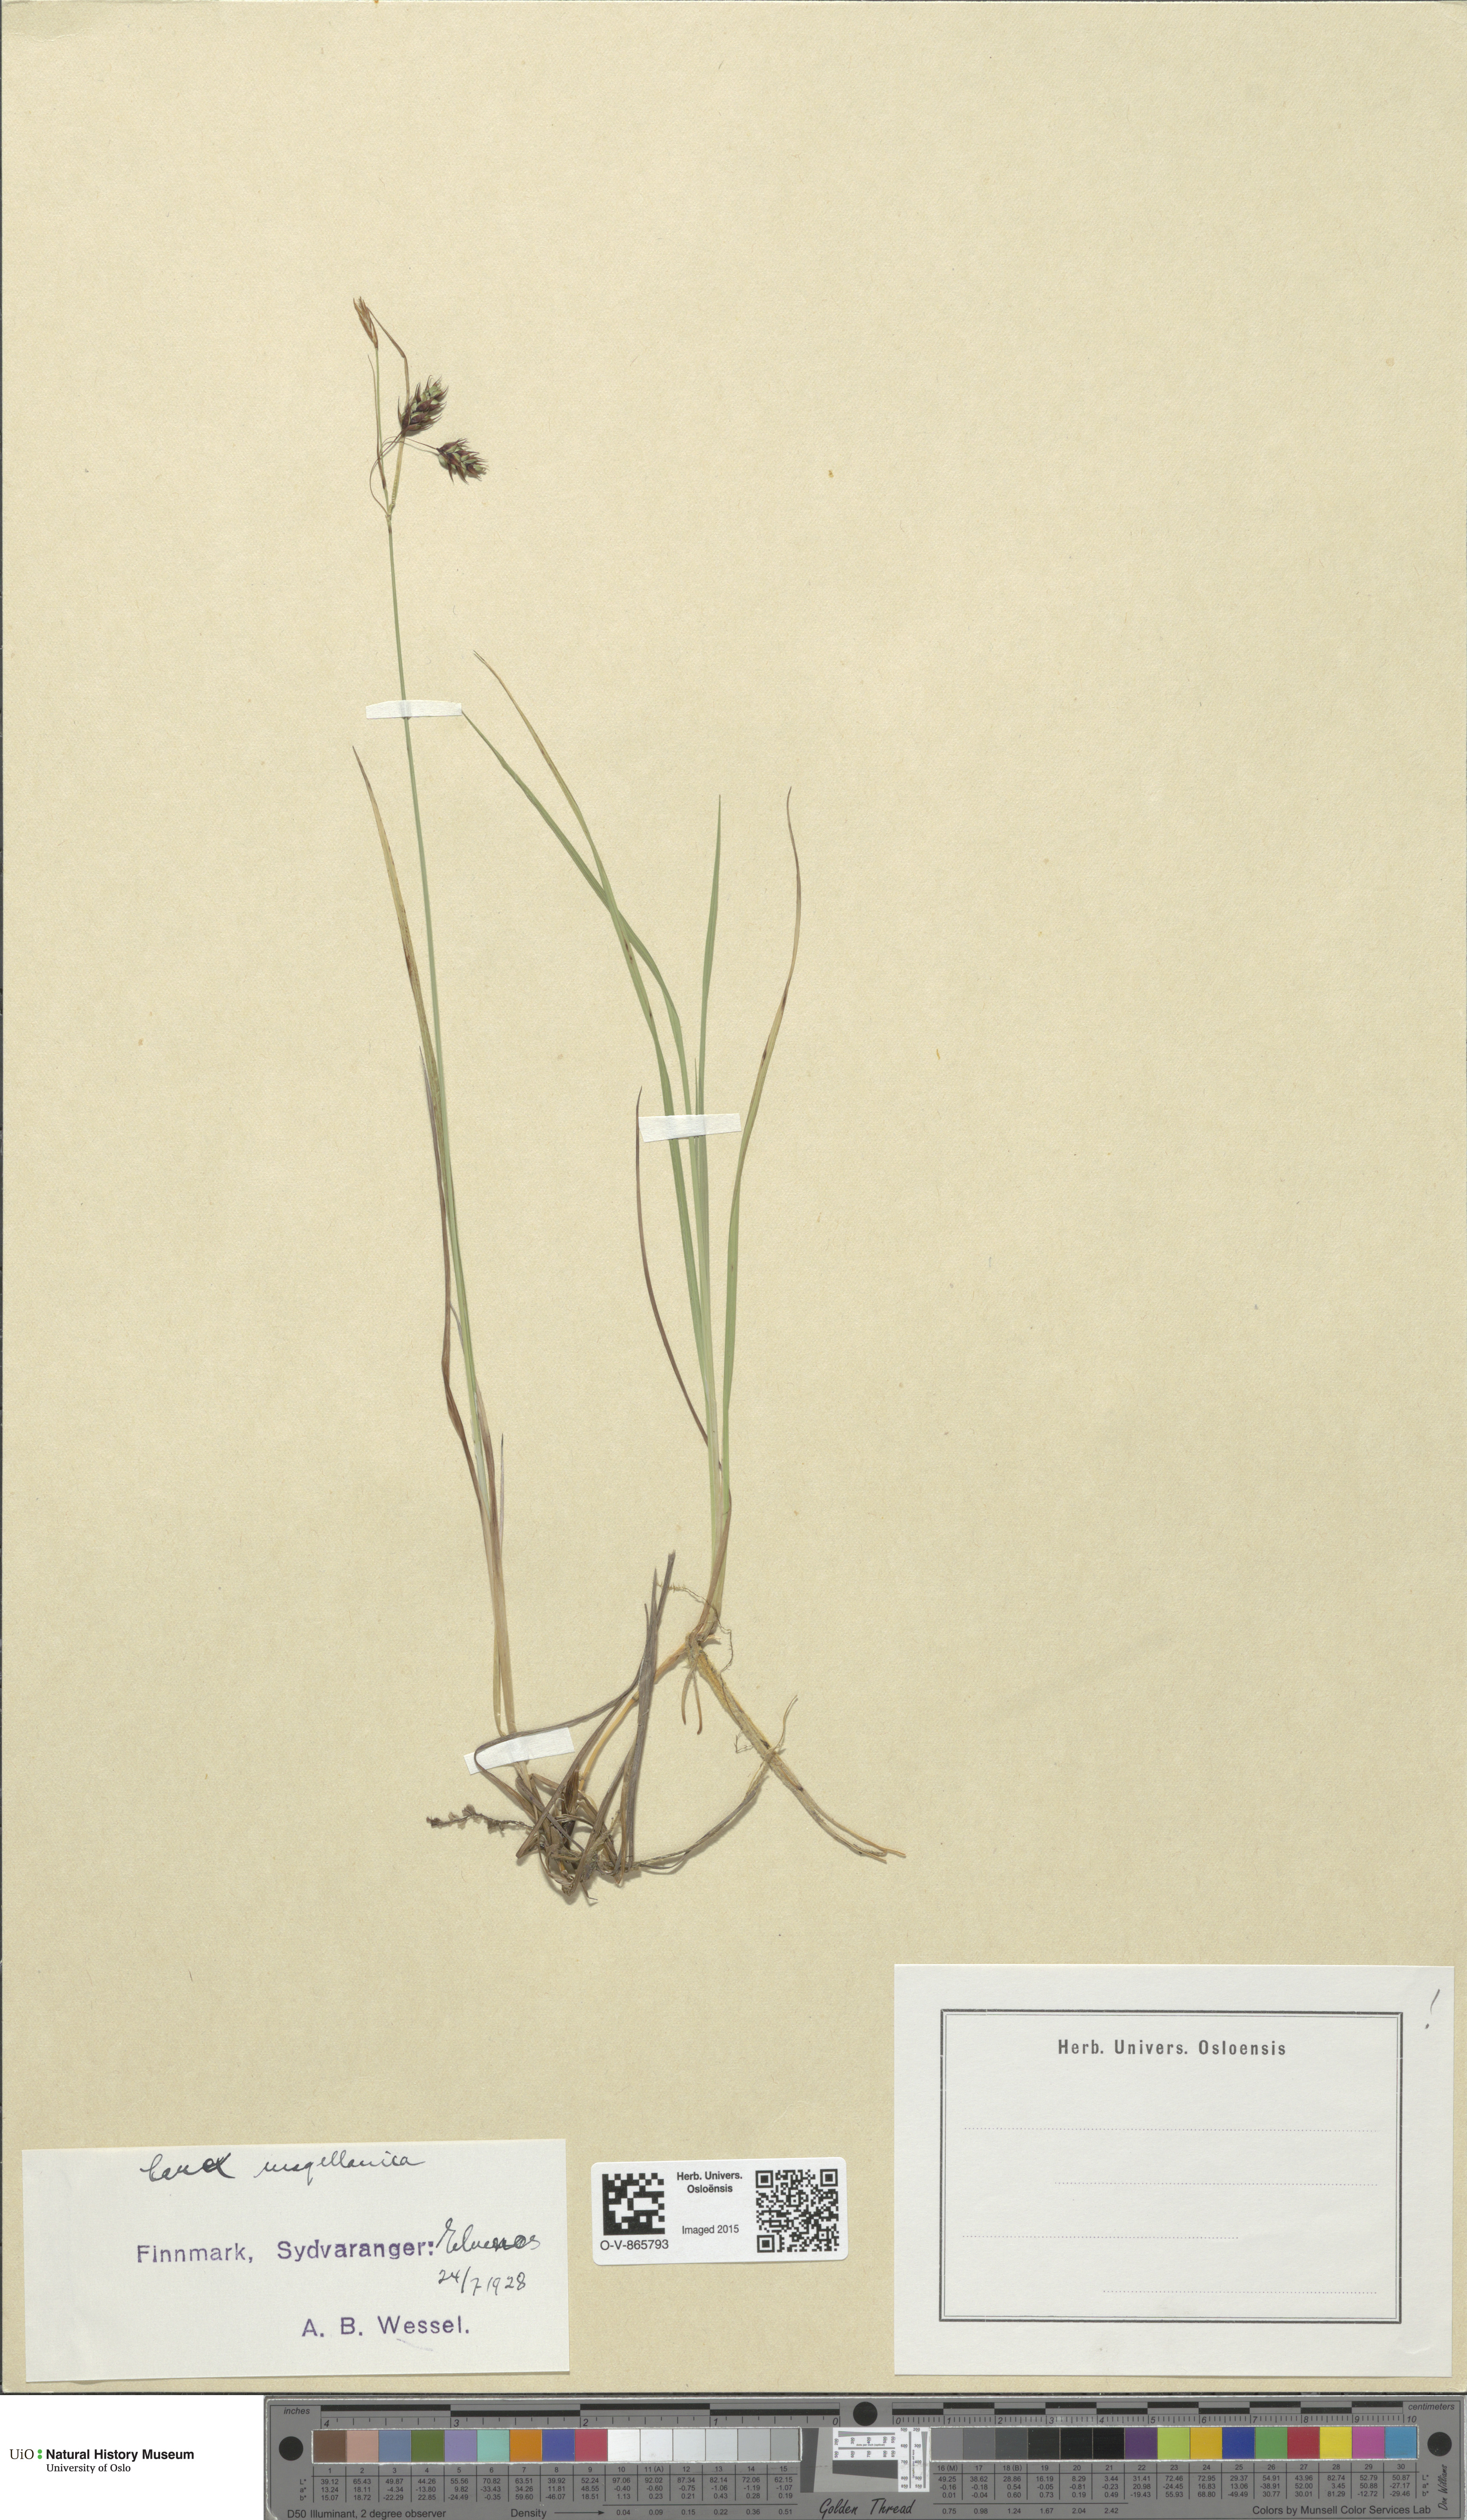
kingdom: Plantae
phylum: Tracheophyta
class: Liliopsida
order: Poales
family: Cyperaceae
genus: Carex
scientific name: Carex magellanica
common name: Bog sedge
